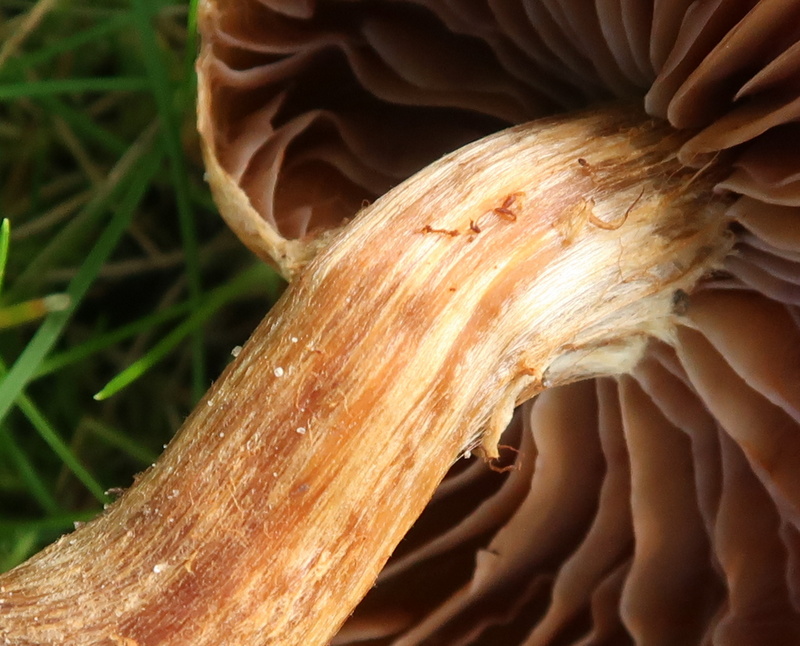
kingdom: Fungi
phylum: Basidiomycota
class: Agaricomycetes
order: Agaricales
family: Cortinariaceae
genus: Cortinarius
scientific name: Cortinarius hinnuleus
